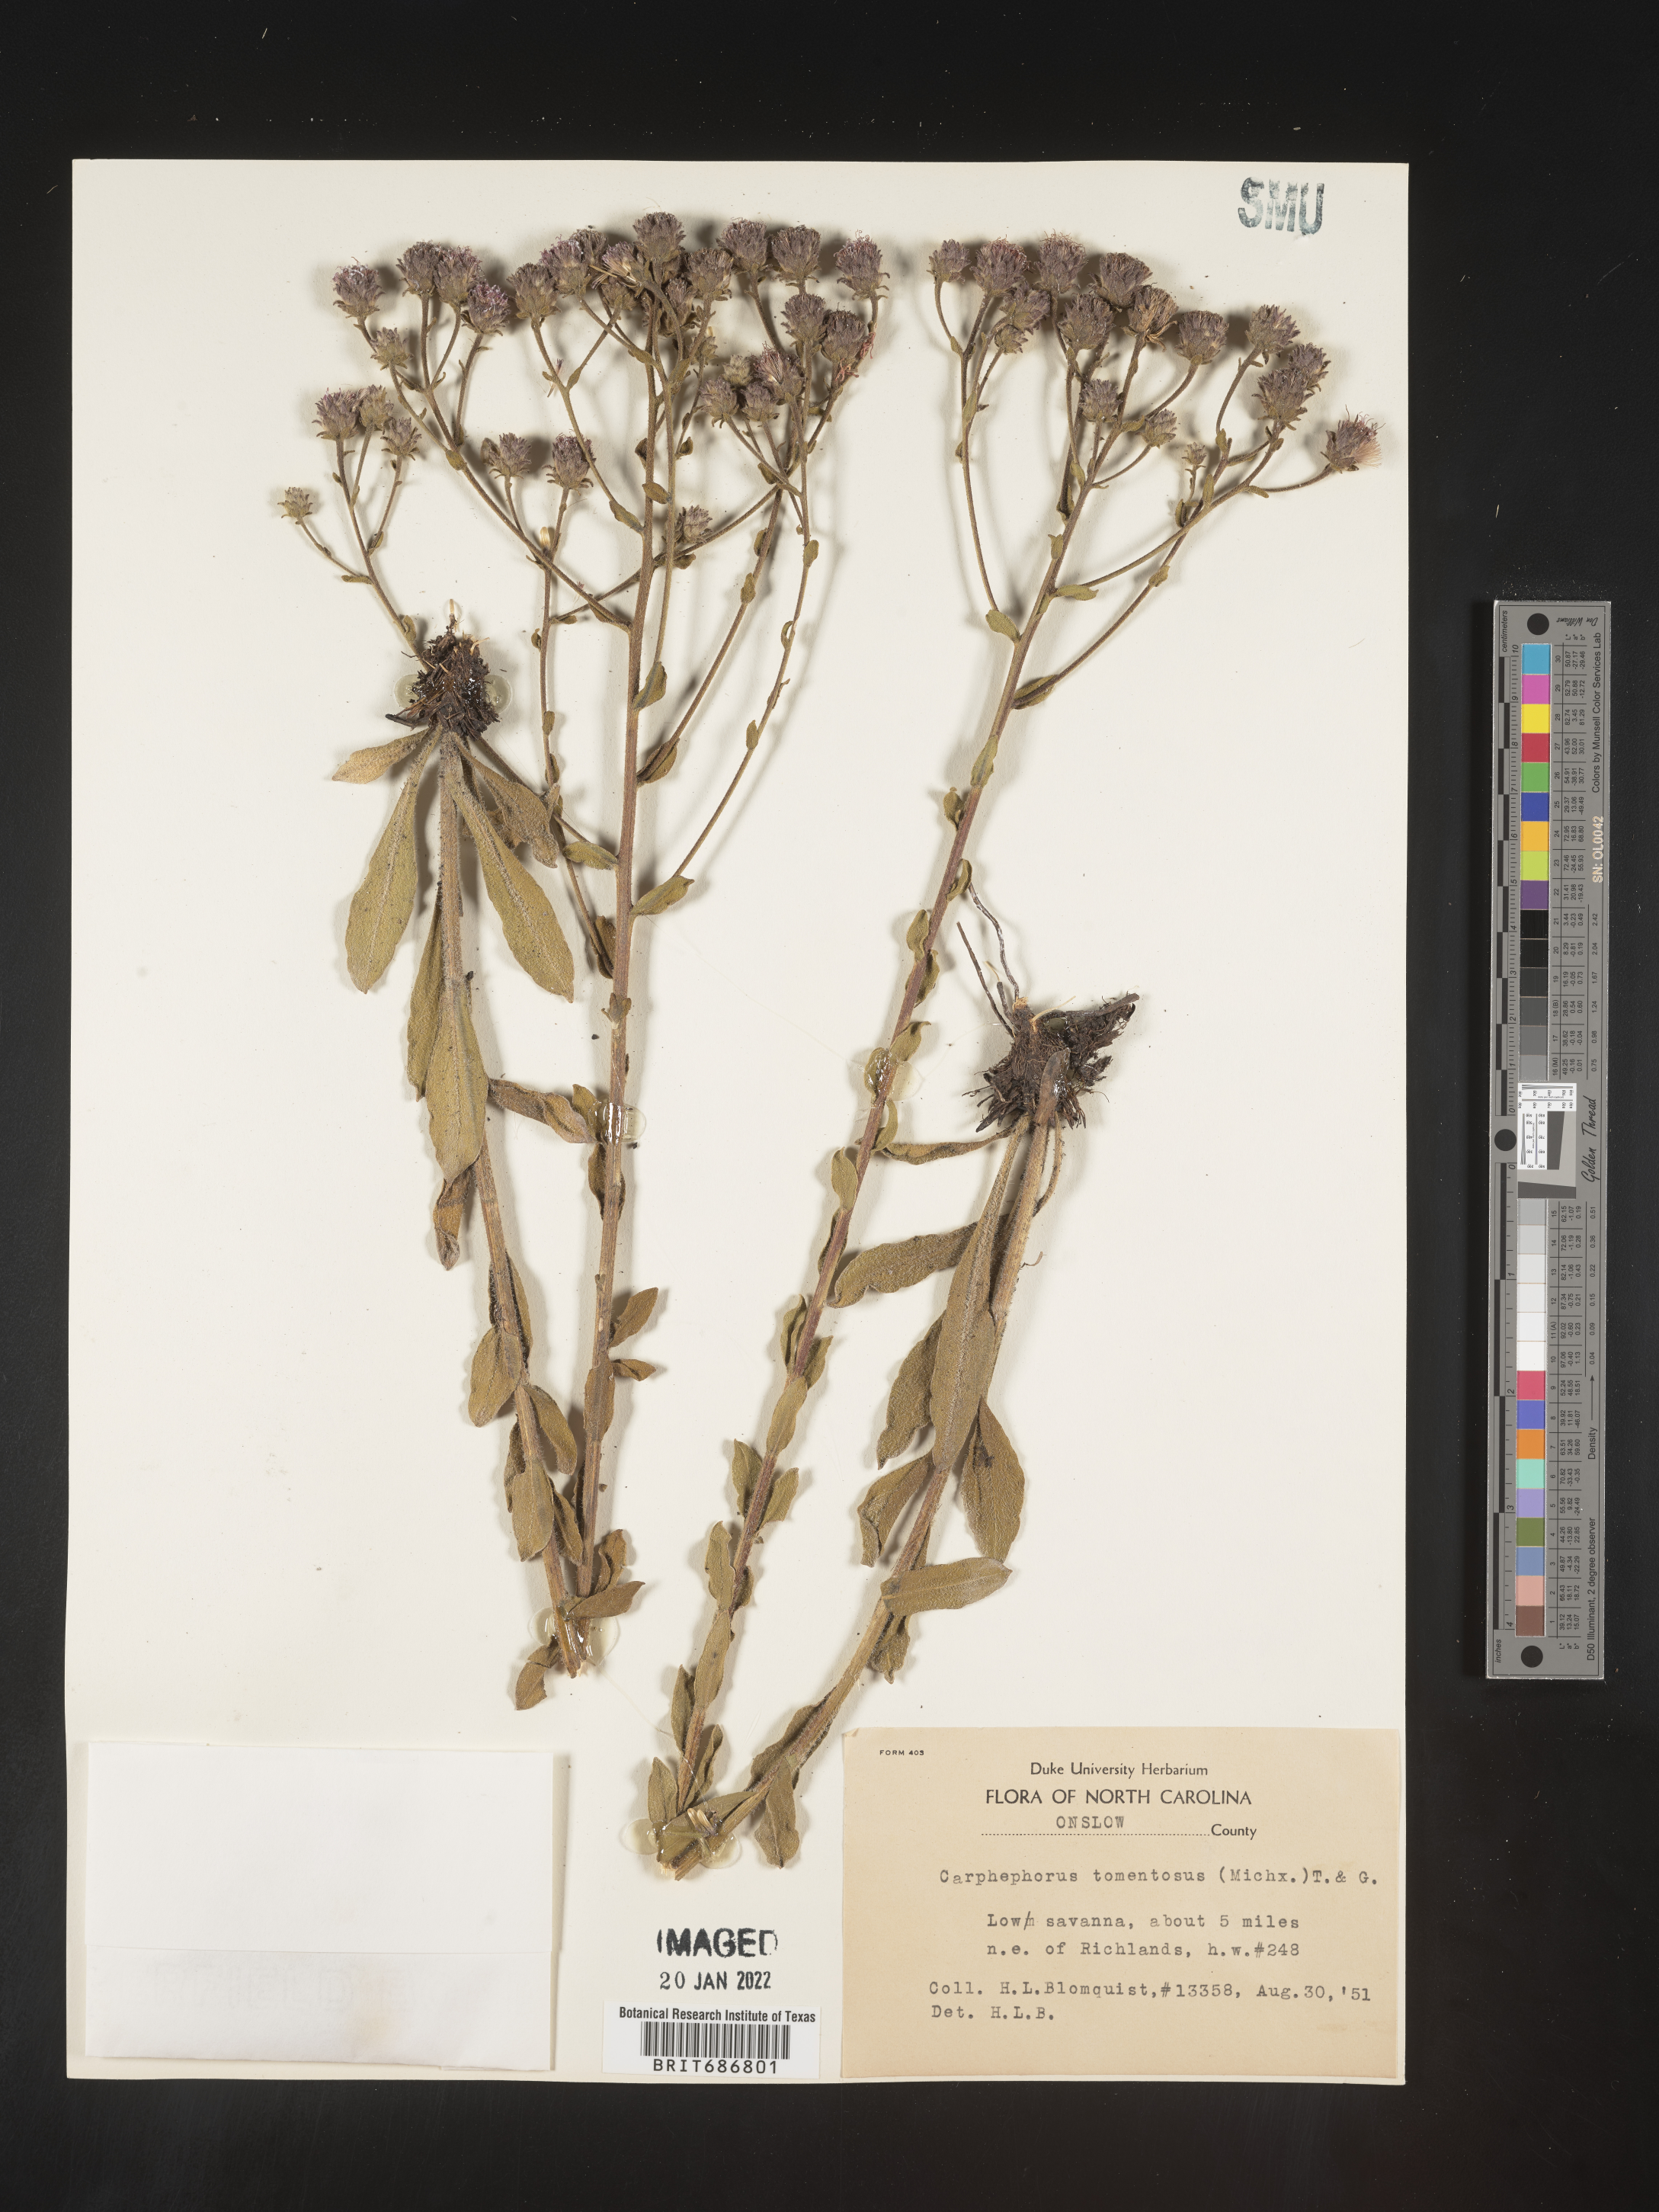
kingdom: Plantae
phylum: Tracheophyta
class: Magnoliopsida
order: Asterales
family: Asteraceae
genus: Carphephorus
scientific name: Carphephorus tomentosus
